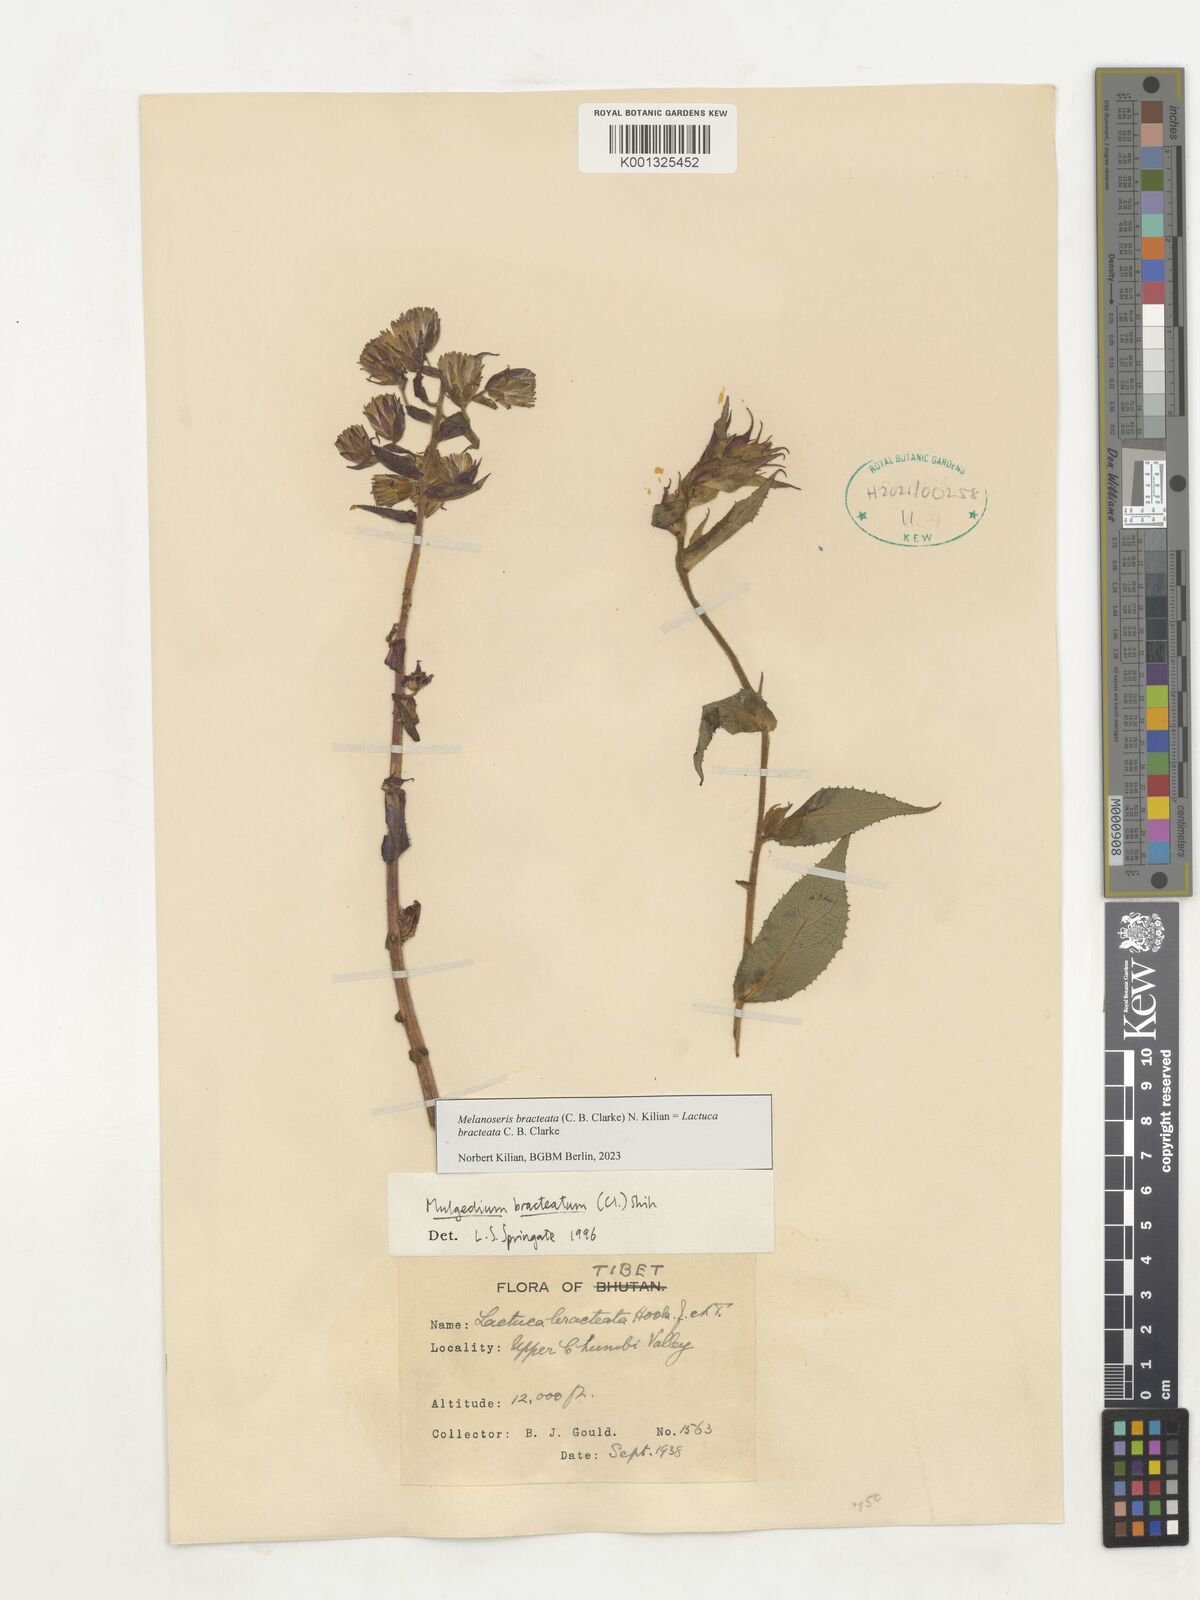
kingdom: Plantae
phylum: Tracheophyta
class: Magnoliopsida
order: Asterales
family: Asteraceae
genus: Lactuca
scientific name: Lactuca bracteata
